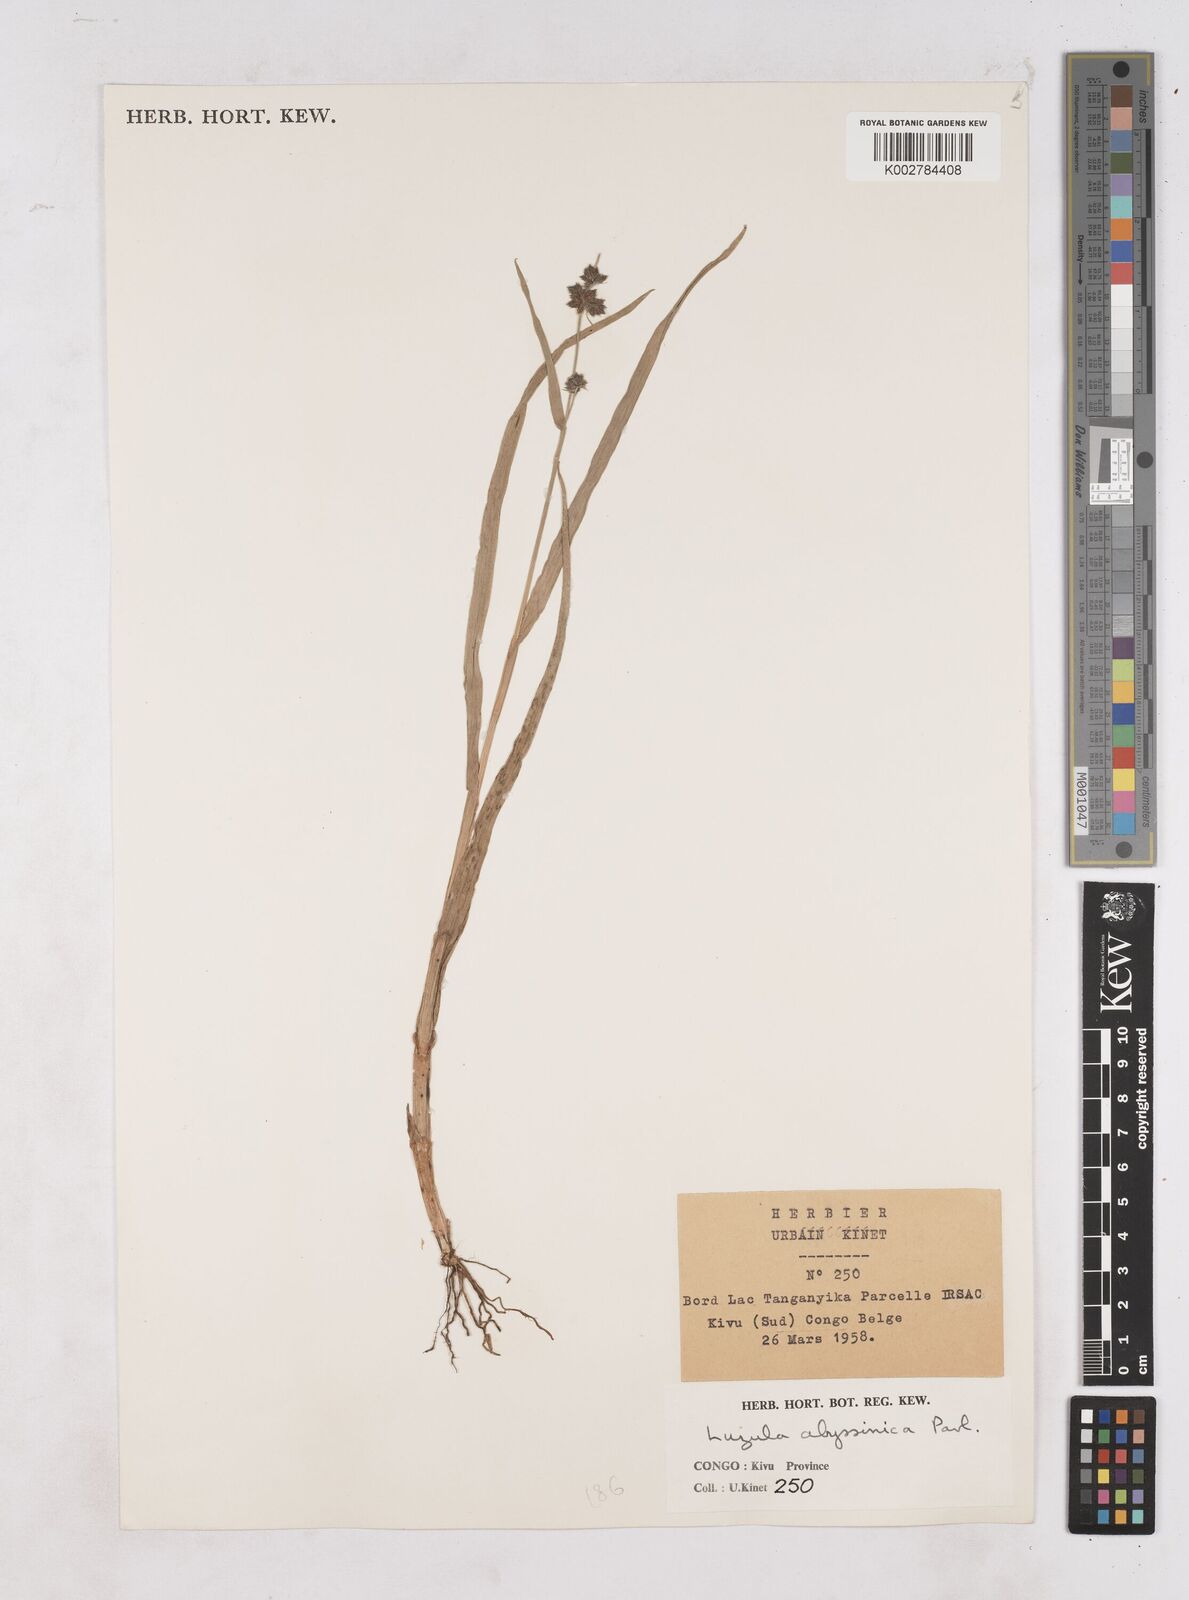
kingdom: Plantae
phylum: Tracheophyta
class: Liliopsida
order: Poales
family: Juncaceae
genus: Luzula
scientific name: Luzula abyssinica
